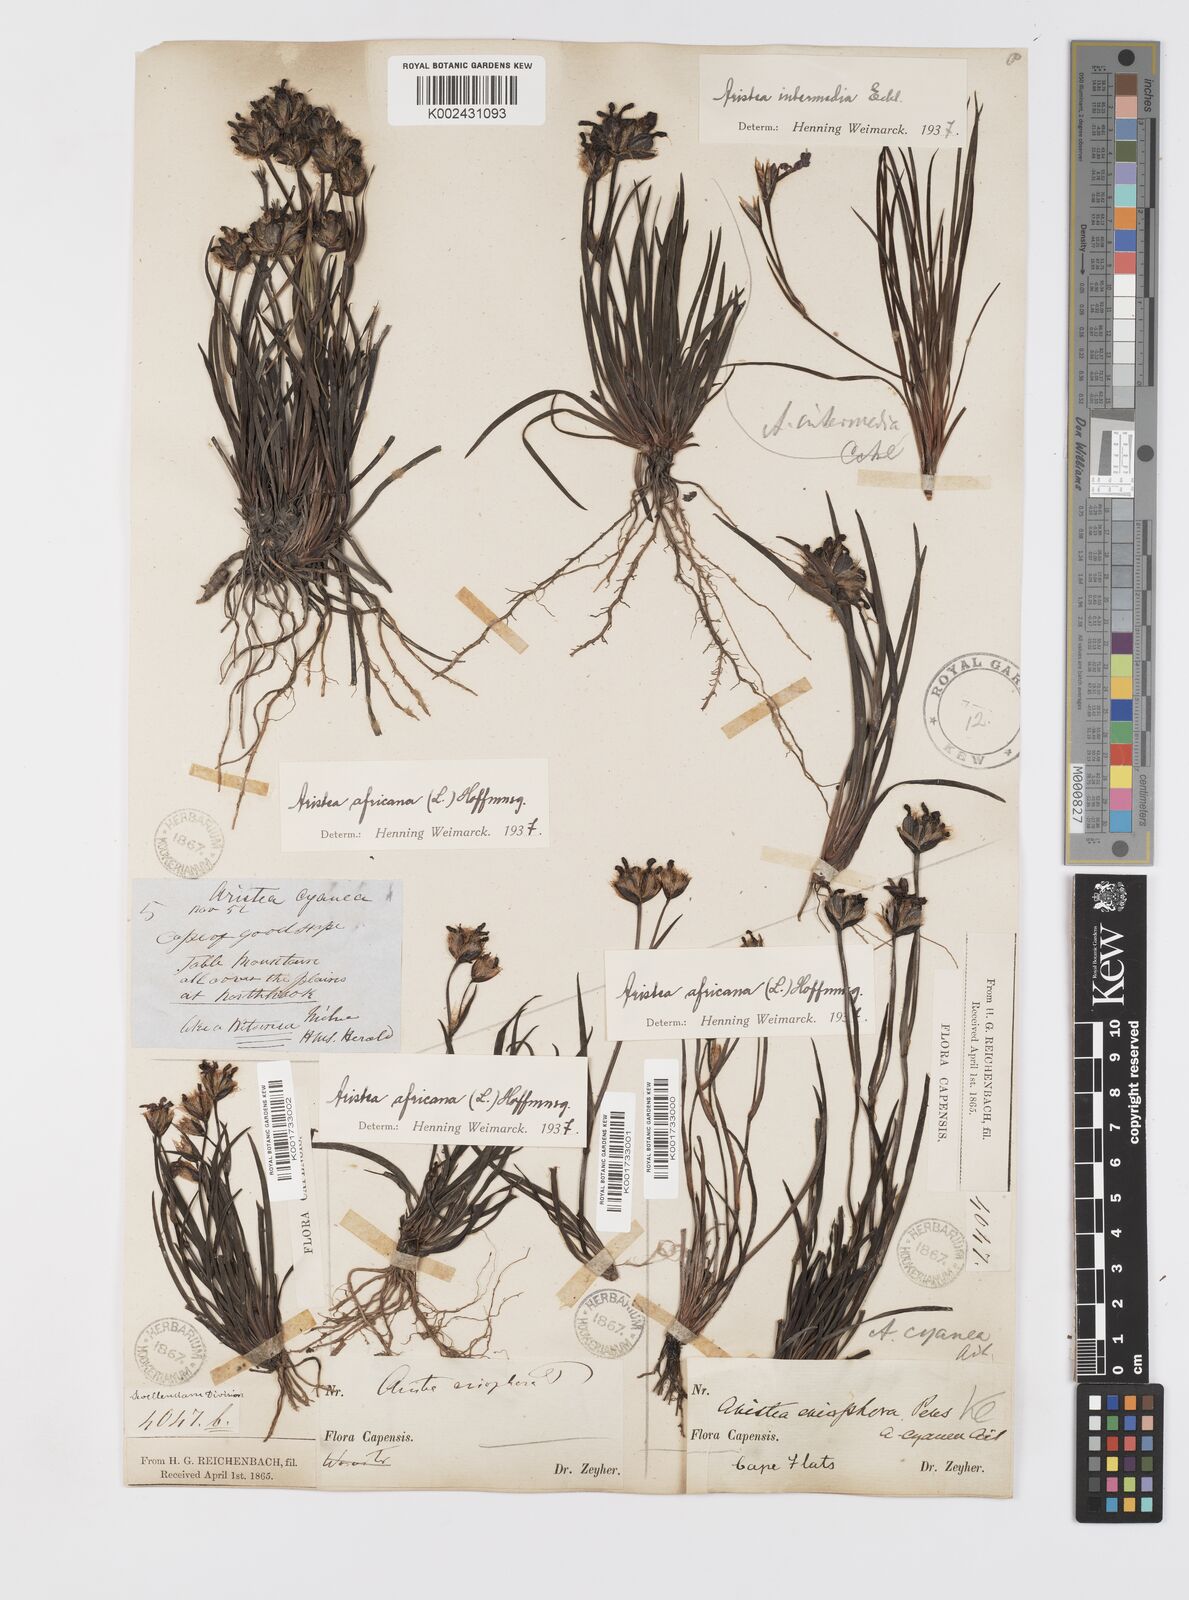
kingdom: Plantae
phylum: Tracheophyta
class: Liliopsida
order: Asparagales
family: Iridaceae
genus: Aristea
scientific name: Aristea africana
